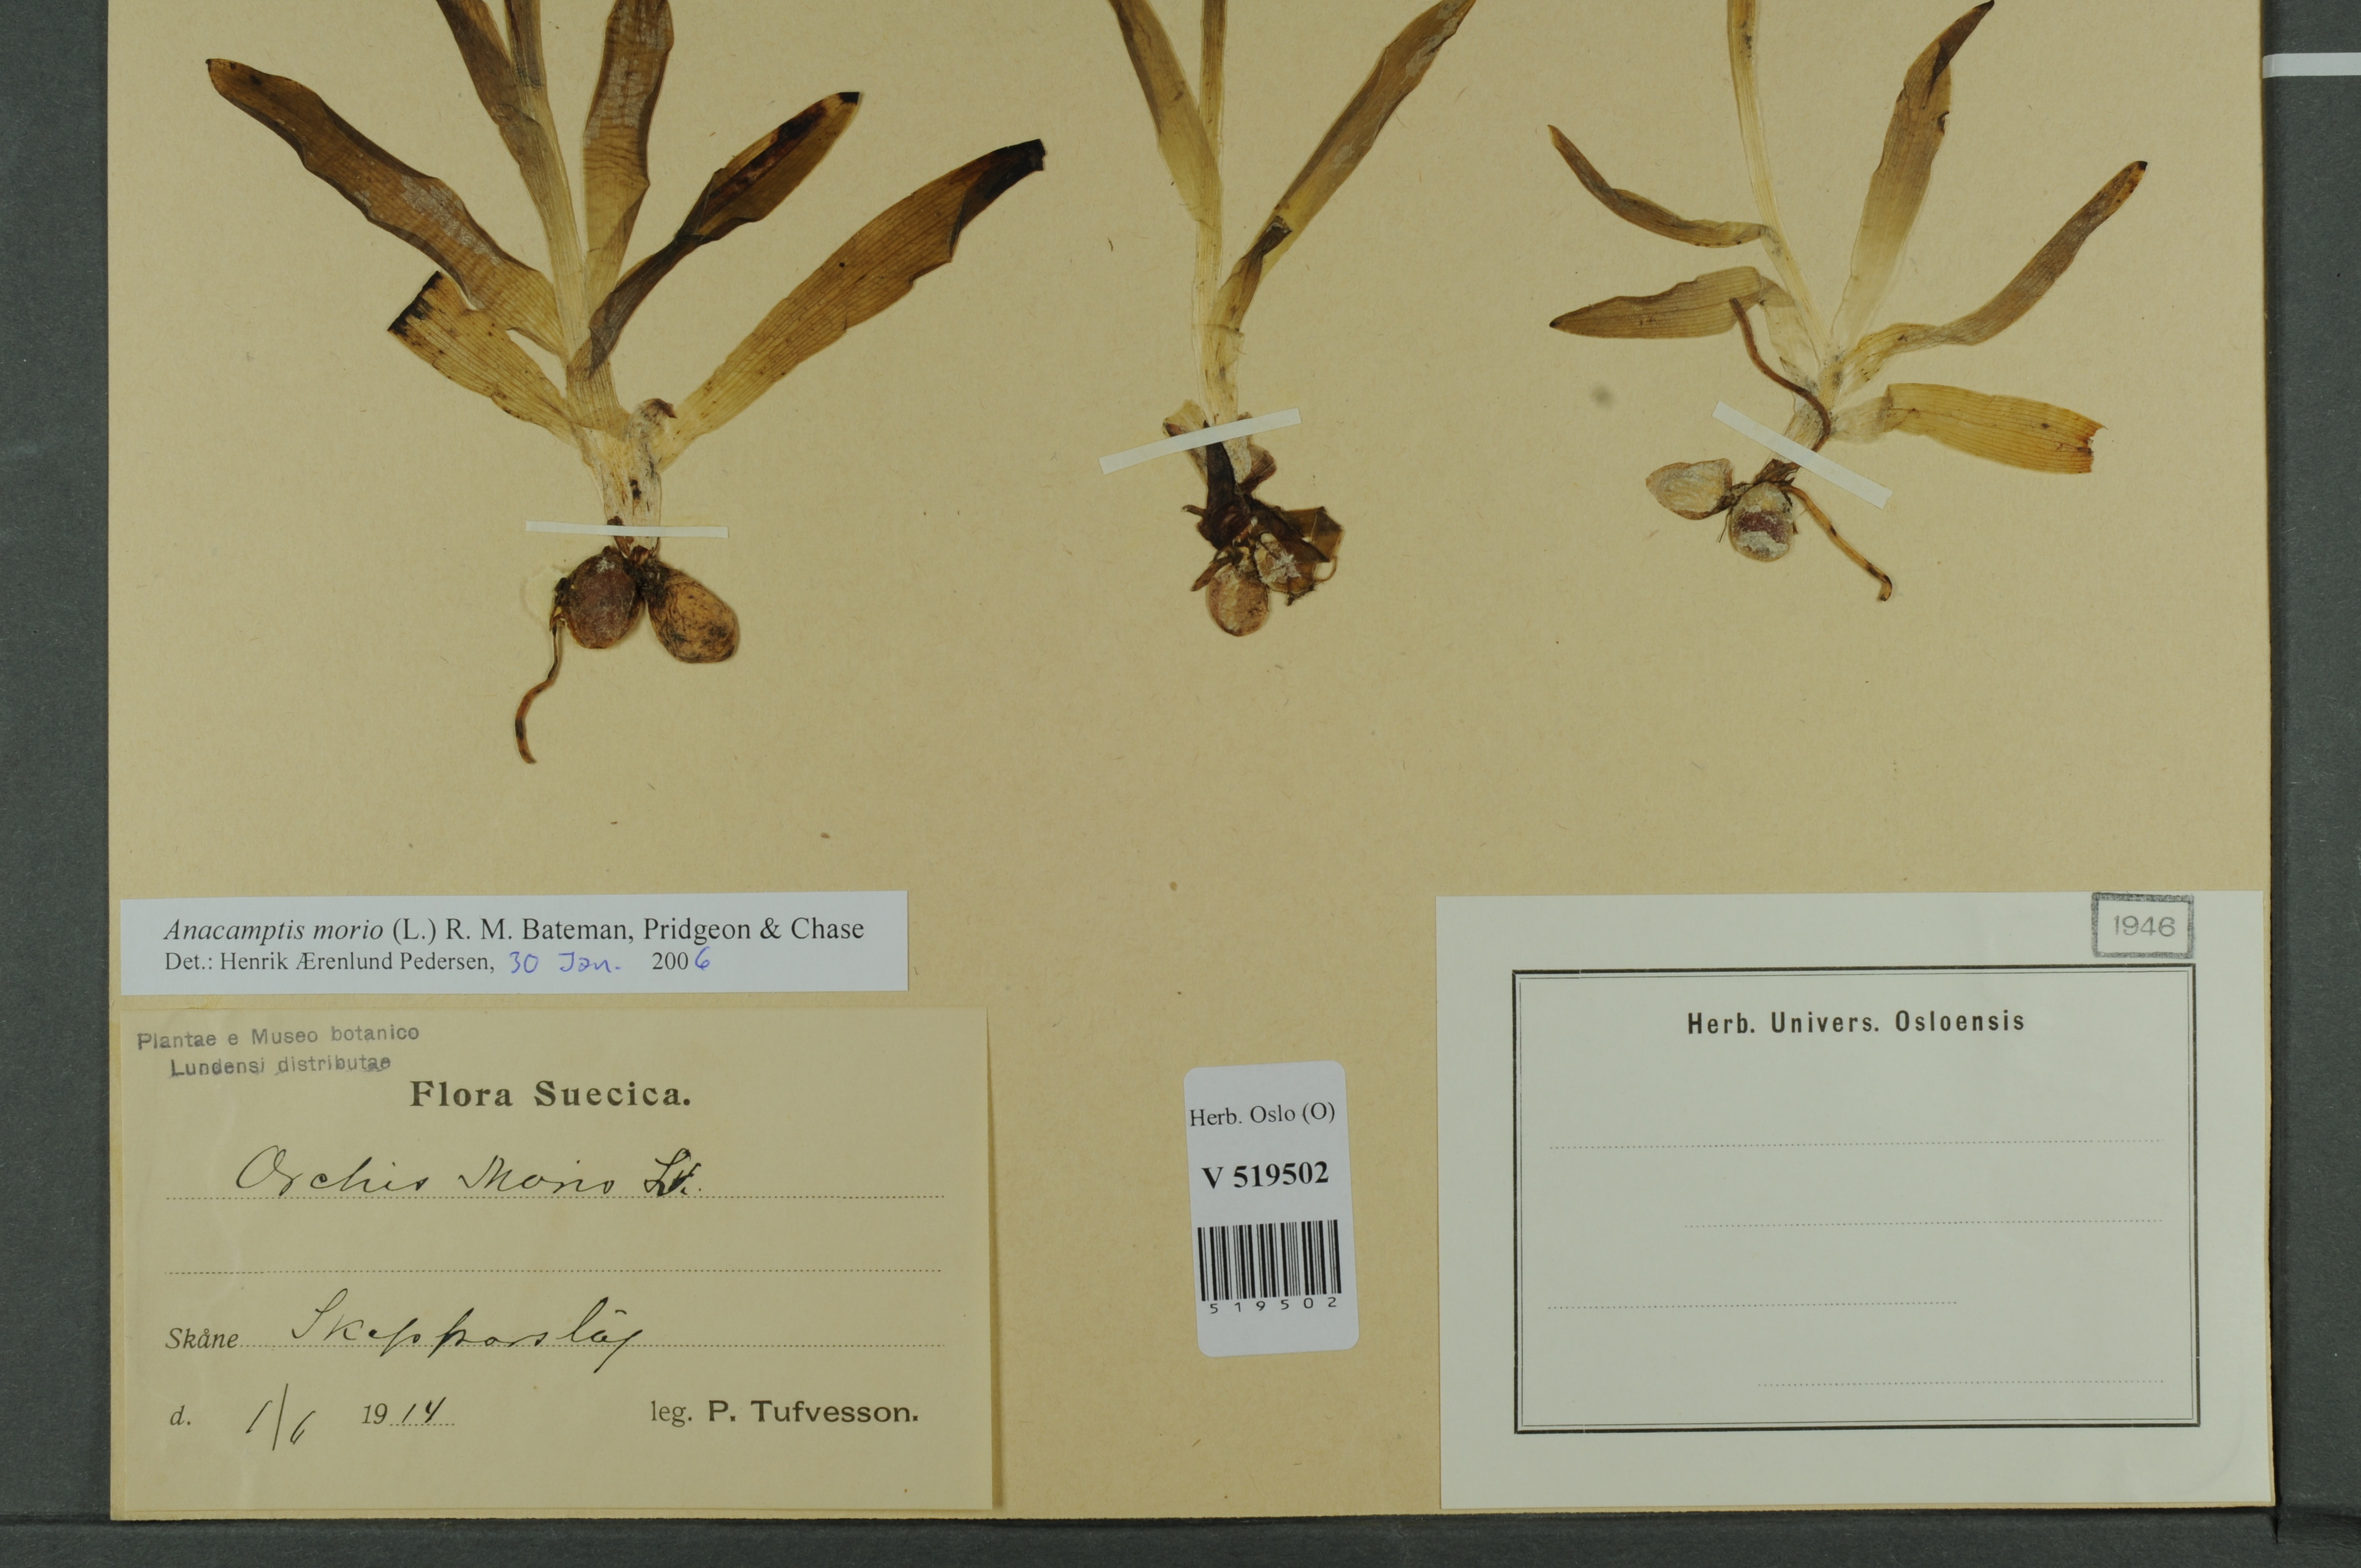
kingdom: Plantae
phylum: Tracheophyta
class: Liliopsida
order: Asparagales
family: Orchidaceae
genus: Anacamptis
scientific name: Anacamptis morio
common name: Green-winged orchid
